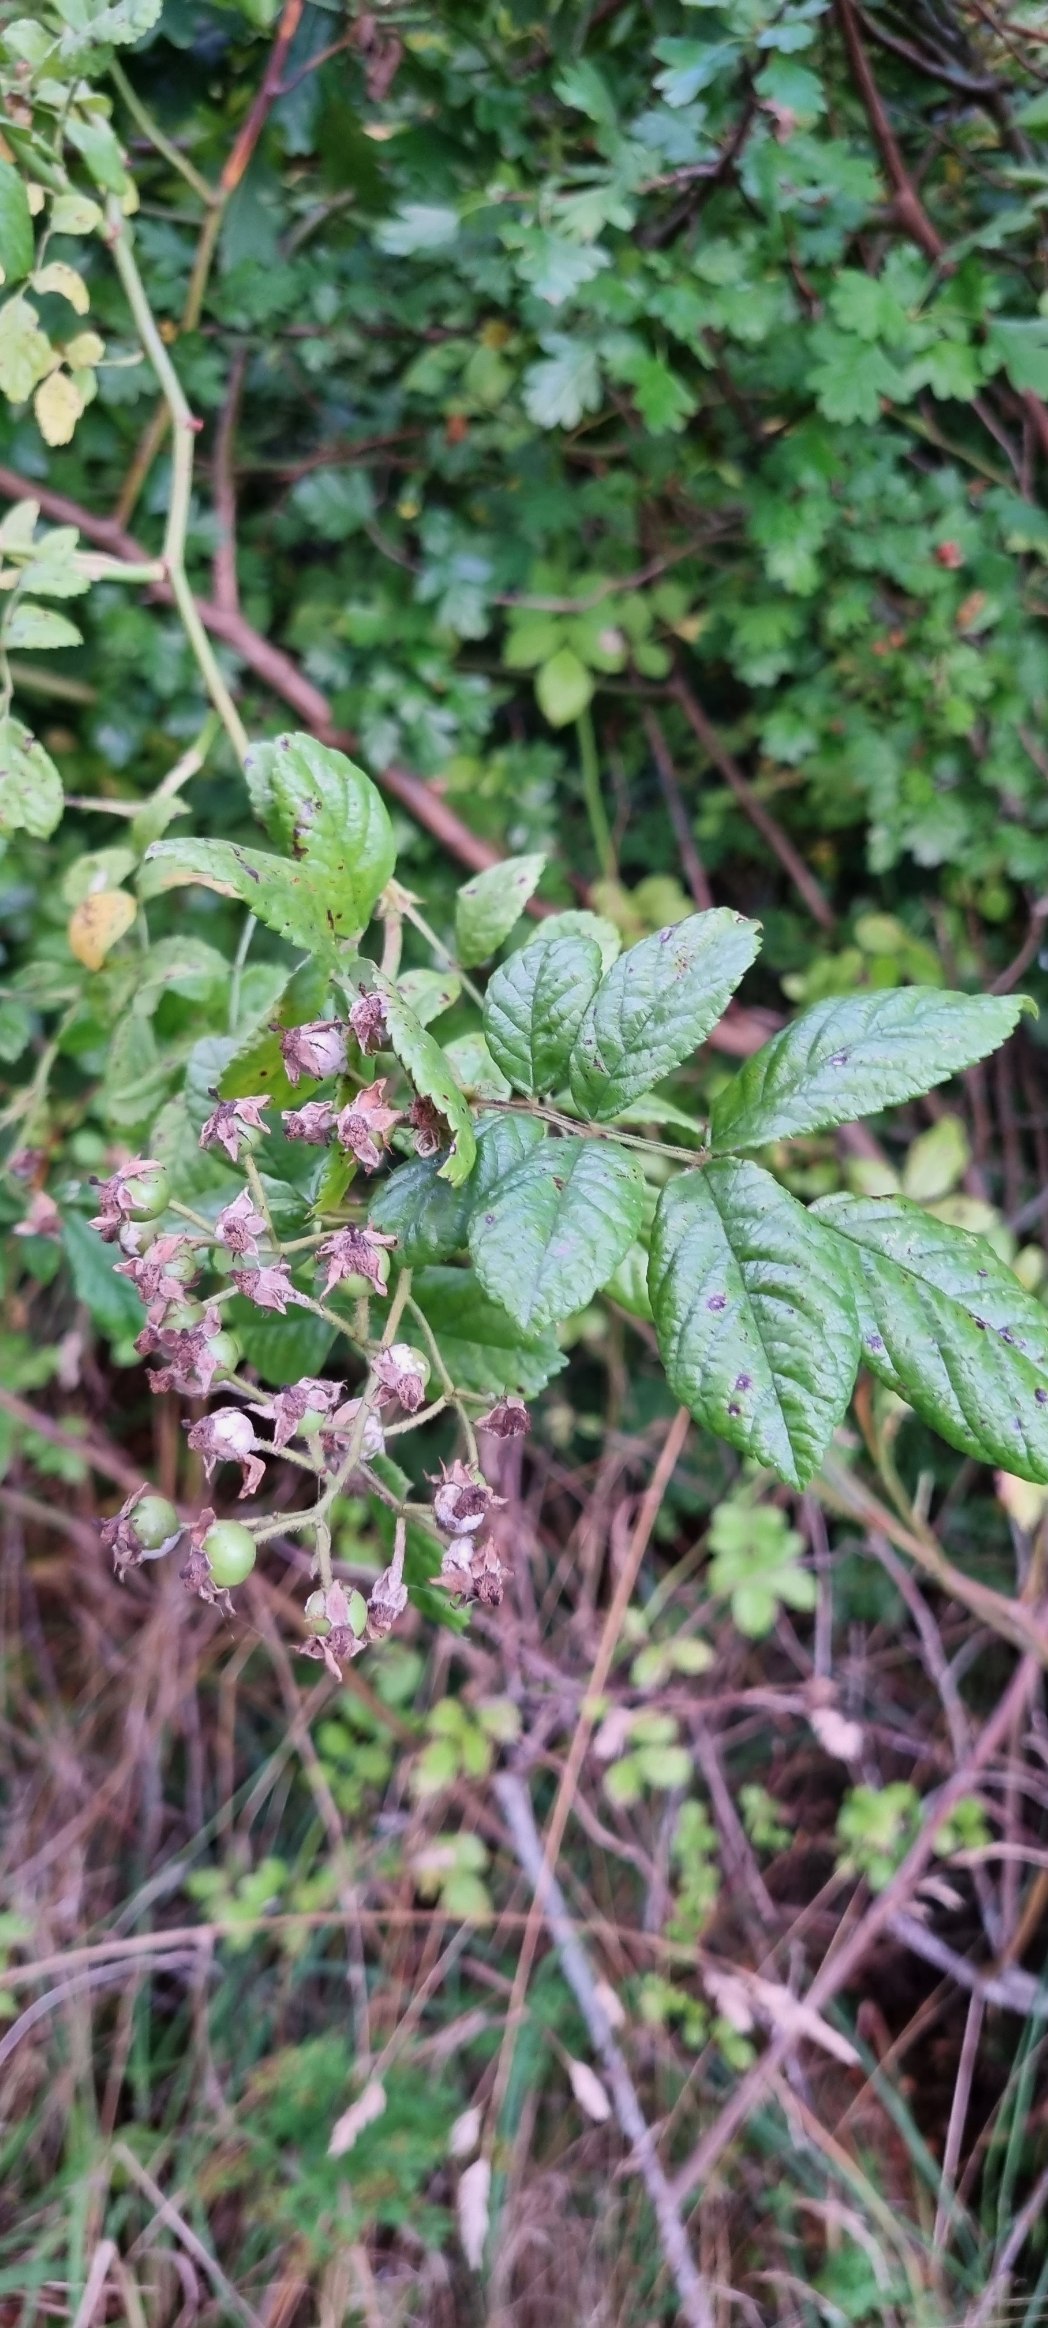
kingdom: Plantae
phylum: Tracheophyta
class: Magnoliopsida
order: Rosales
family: Rosaceae
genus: Rosa
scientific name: Rosa multiflora
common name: Mangeblomstret rose
